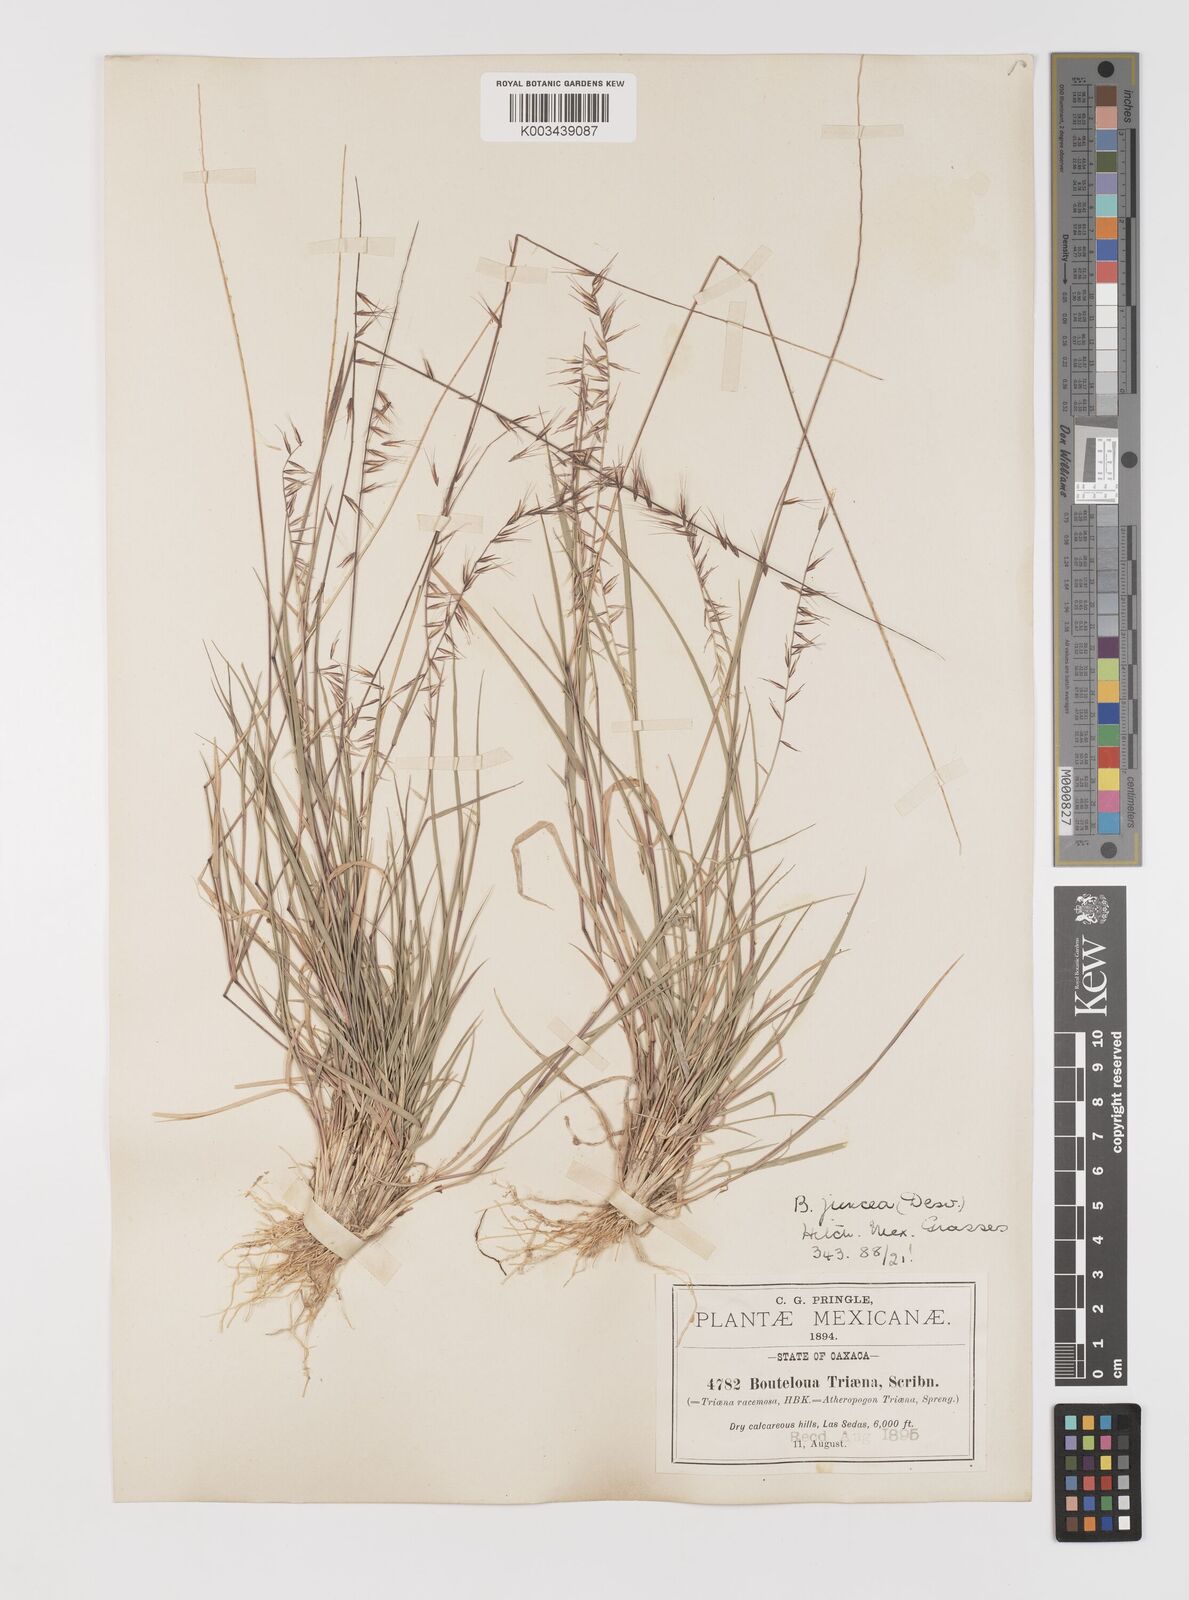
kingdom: Plantae
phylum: Tracheophyta
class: Liliopsida
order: Poales
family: Poaceae
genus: Bouteloua
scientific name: Bouteloua triaena
